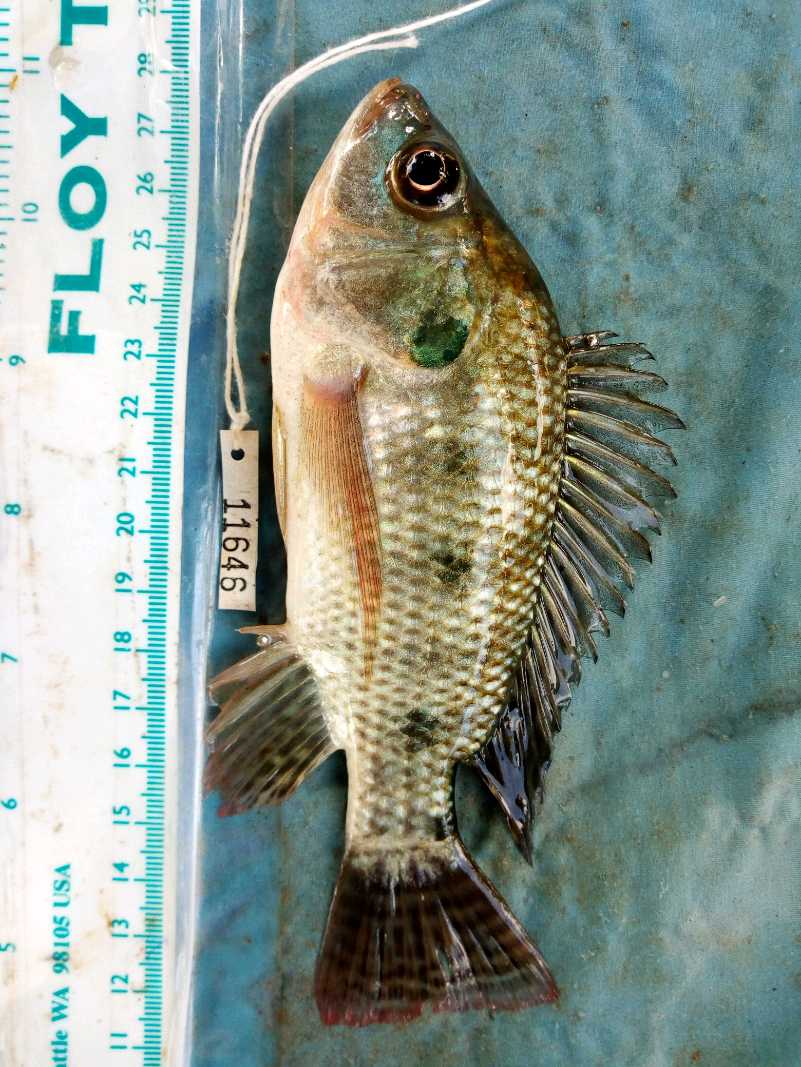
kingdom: Animalia
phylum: Chordata
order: Perciformes
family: Cichlidae
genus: Oreochromis
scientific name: Oreochromis niloticus
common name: Nile tilapia
